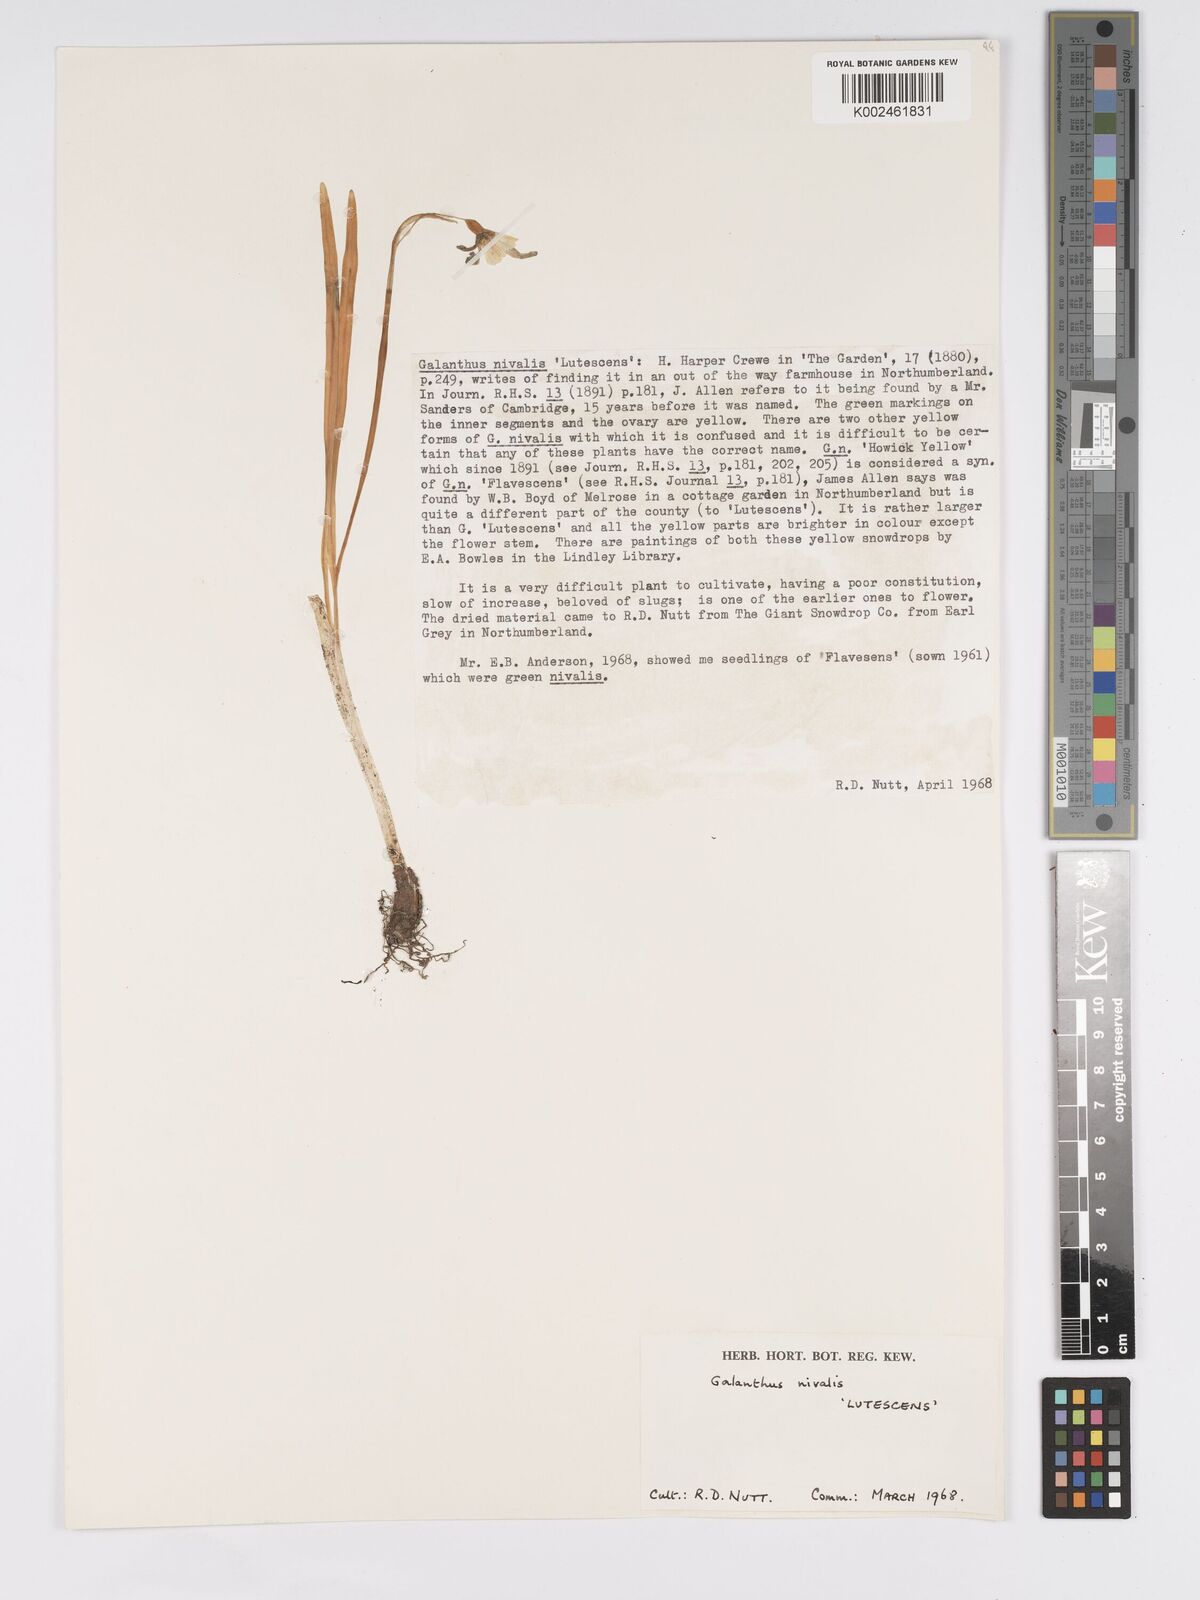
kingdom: Plantae
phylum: Tracheophyta
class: Liliopsida
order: Asparagales
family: Amaryllidaceae
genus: Galanthus
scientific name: Galanthus
